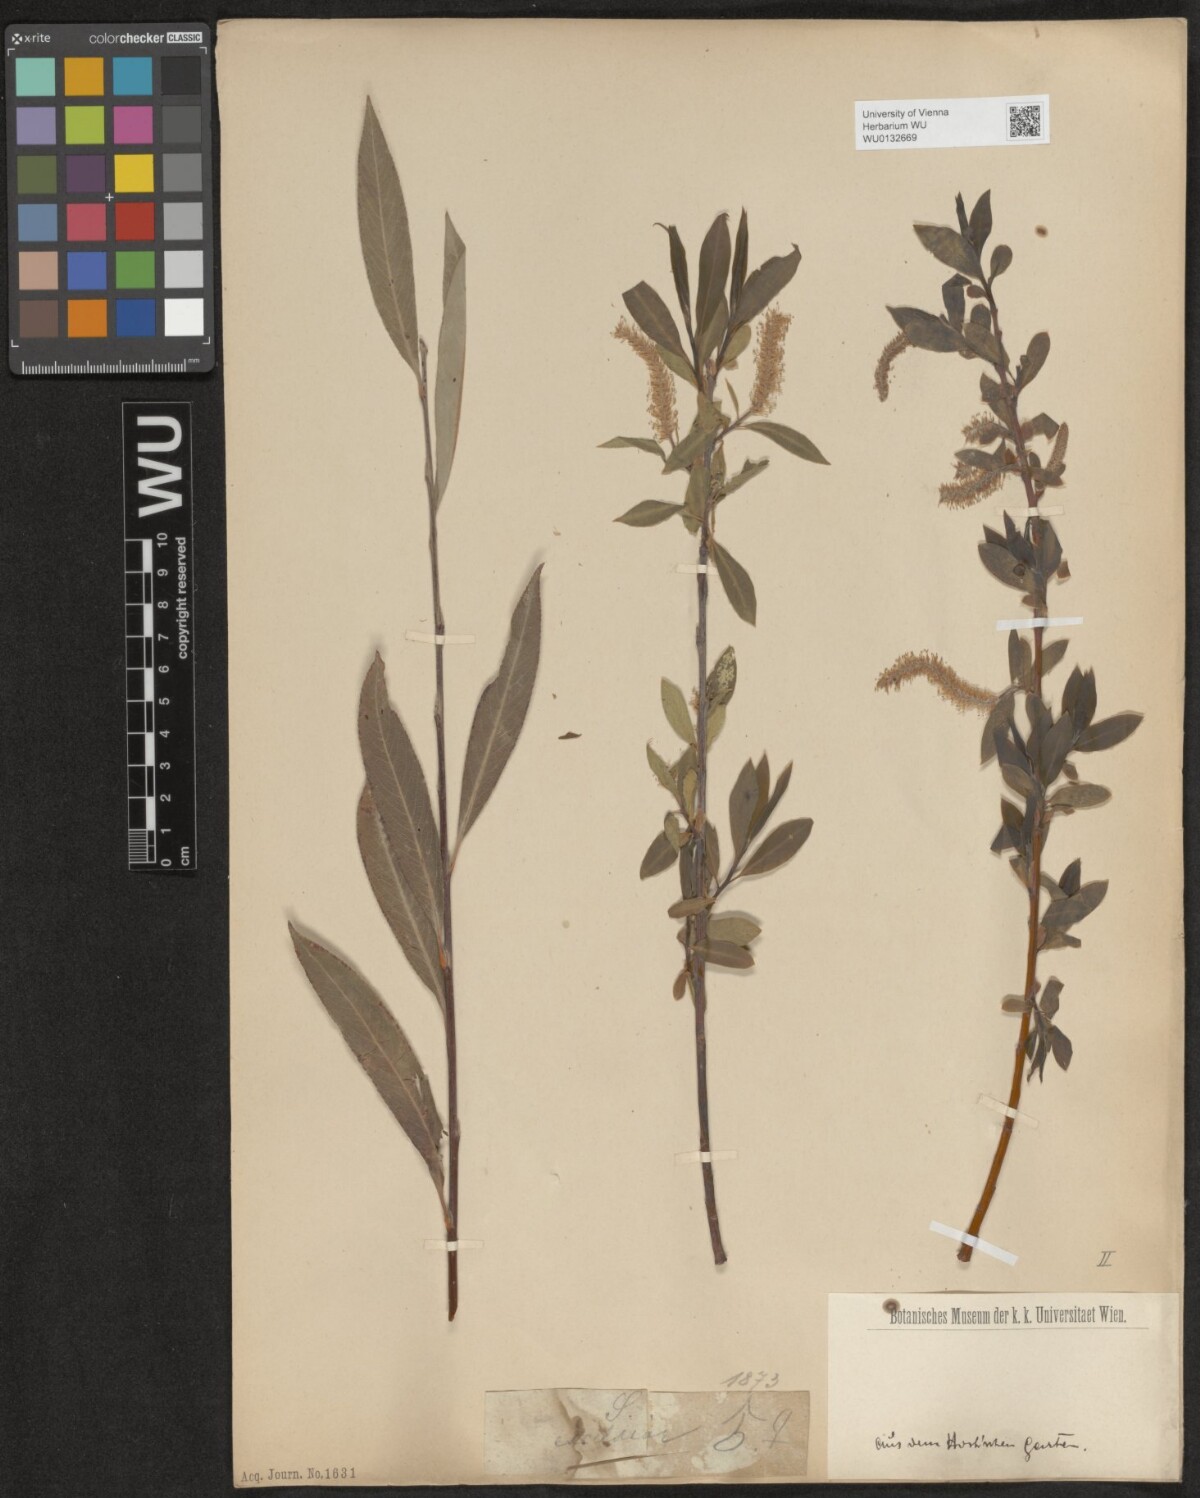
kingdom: Plantae
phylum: Tracheophyta
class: Magnoliopsida
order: Malpighiales
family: Salicaceae
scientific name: Salicaceae
